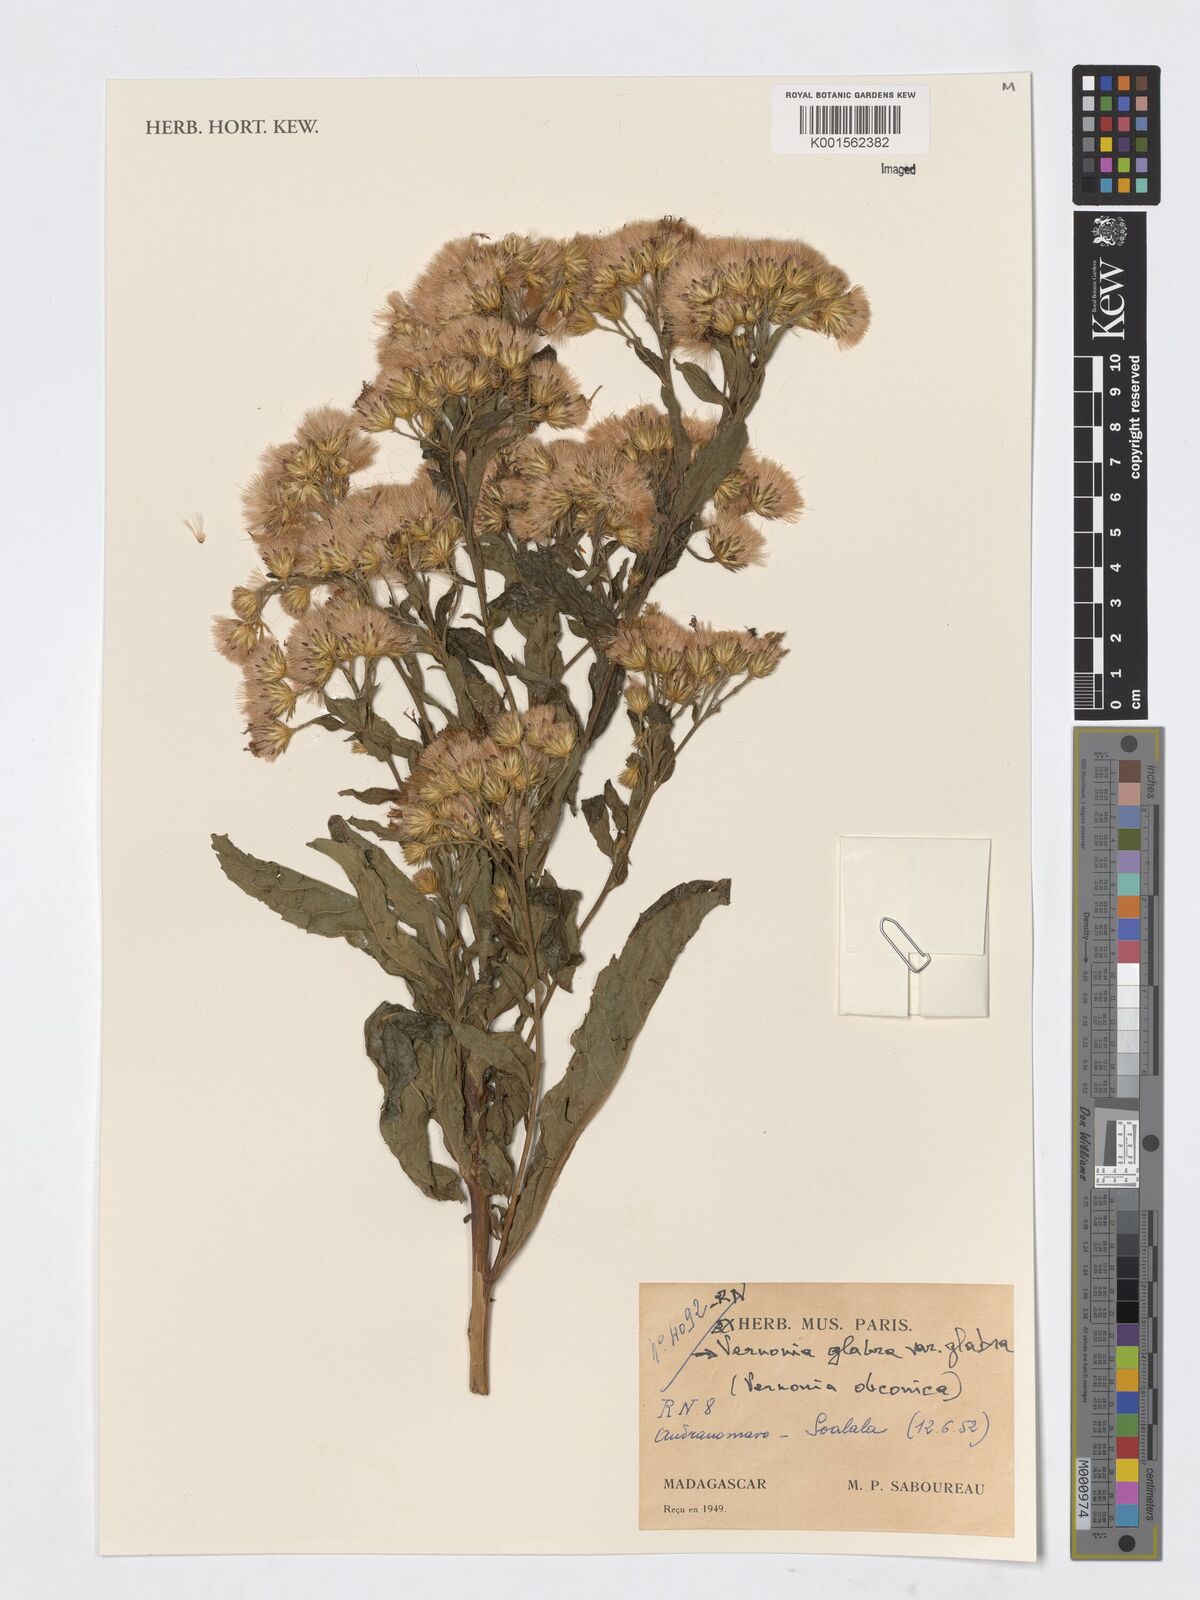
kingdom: Plantae
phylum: Tracheophyta
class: Magnoliopsida
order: Asterales
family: Asteraceae
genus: Linzia
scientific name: Linzia glabra
